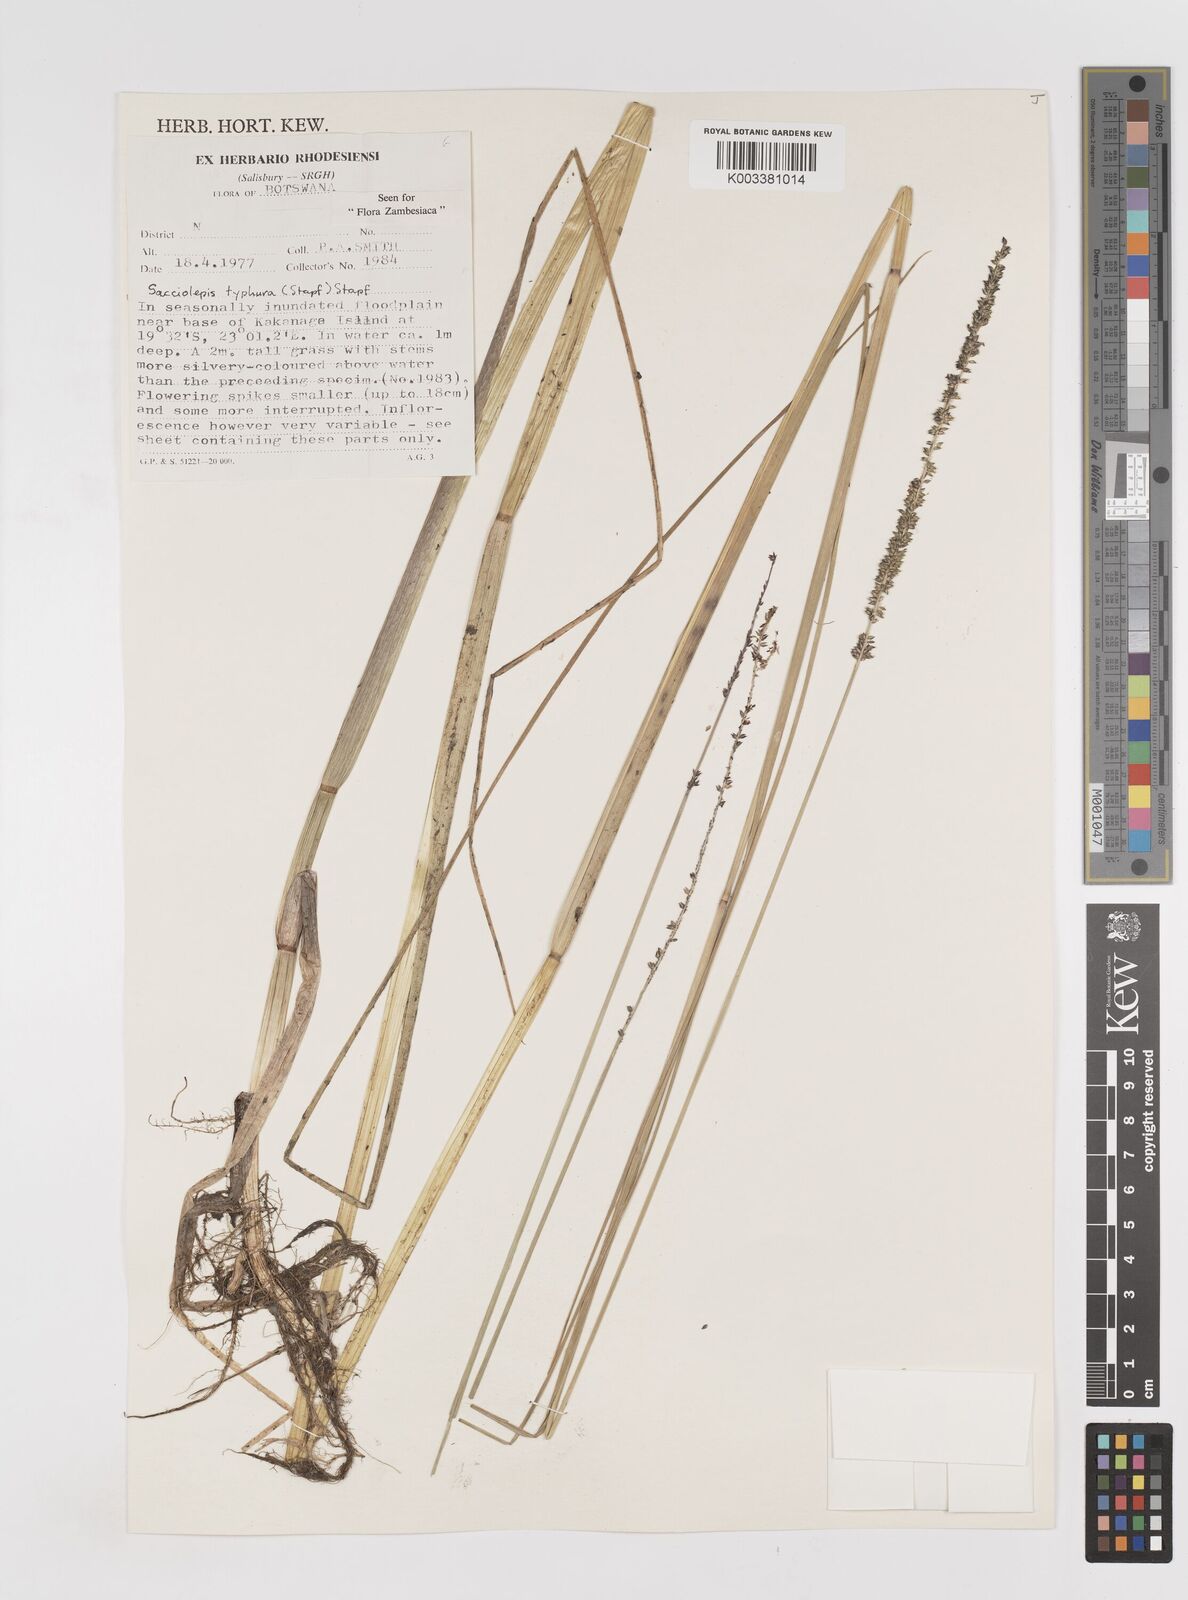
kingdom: Plantae
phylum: Tracheophyta
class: Liliopsida
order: Poales
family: Poaceae
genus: Sacciolepis
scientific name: Sacciolepis typhura
